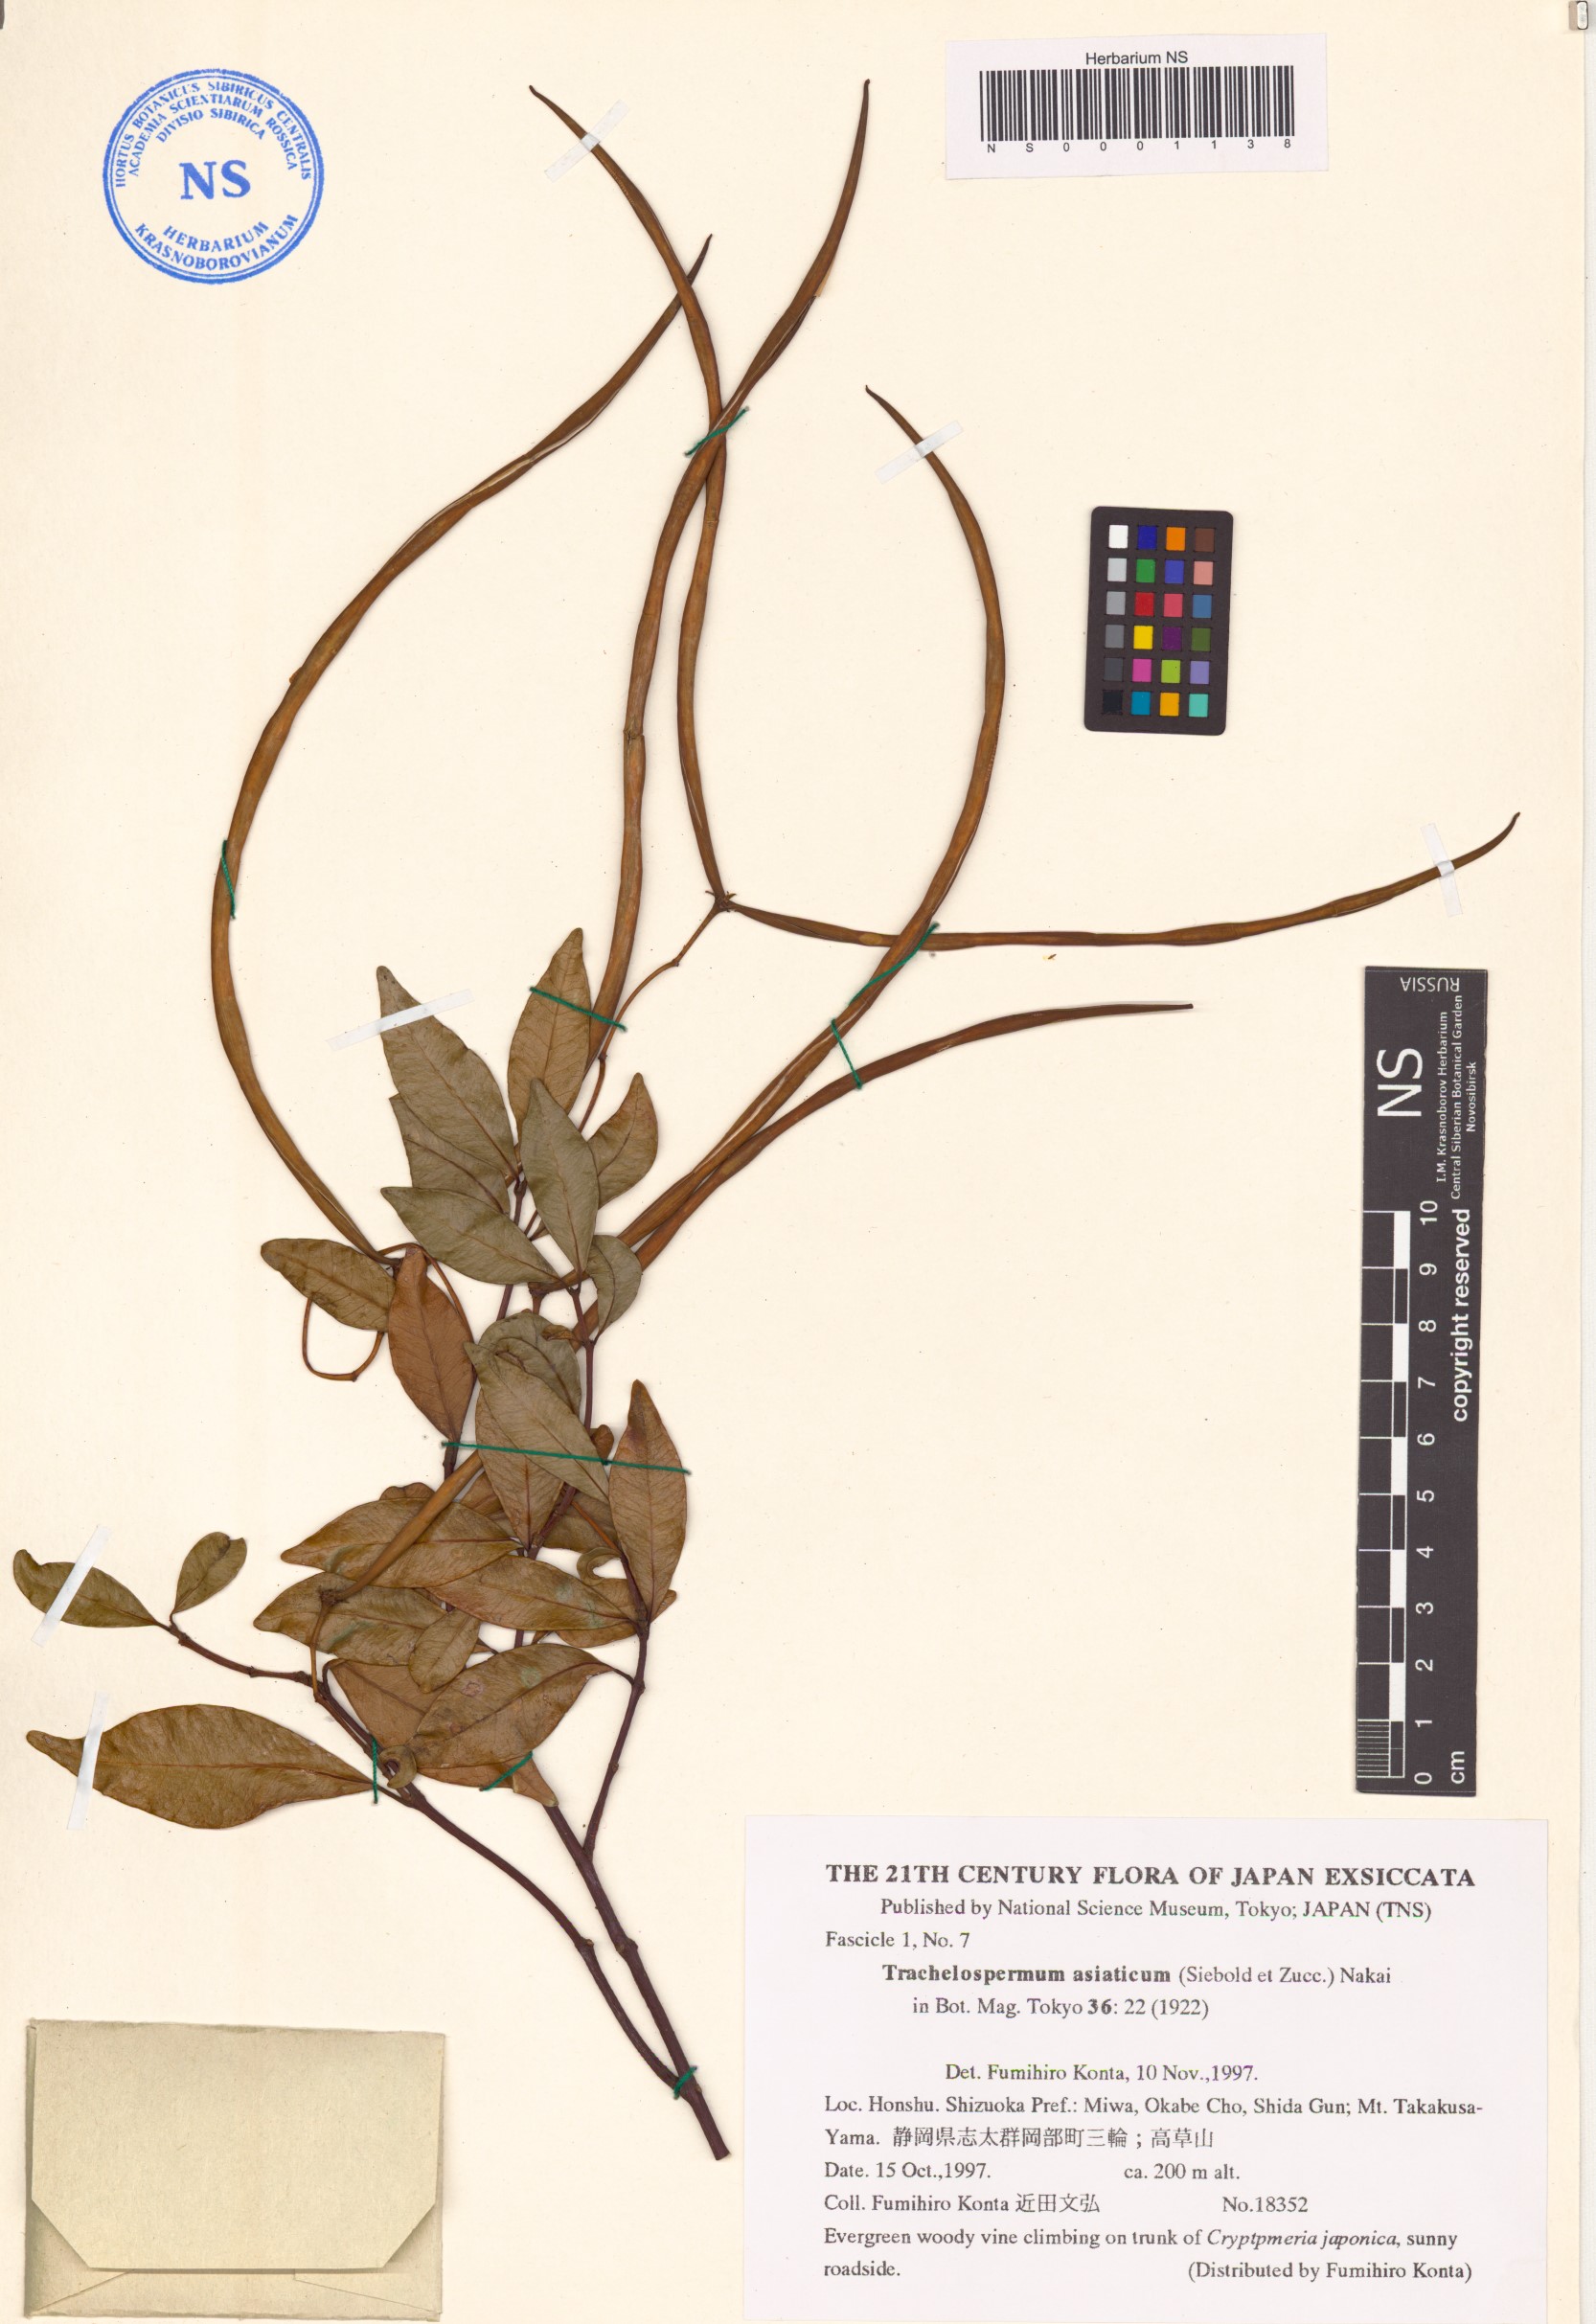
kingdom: Plantae
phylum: Tracheophyta
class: Magnoliopsida
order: Gentianales
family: Apocynaceae
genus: Trachelospermum
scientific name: Trachelospermum asiaticum
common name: Asiatic jasmine
